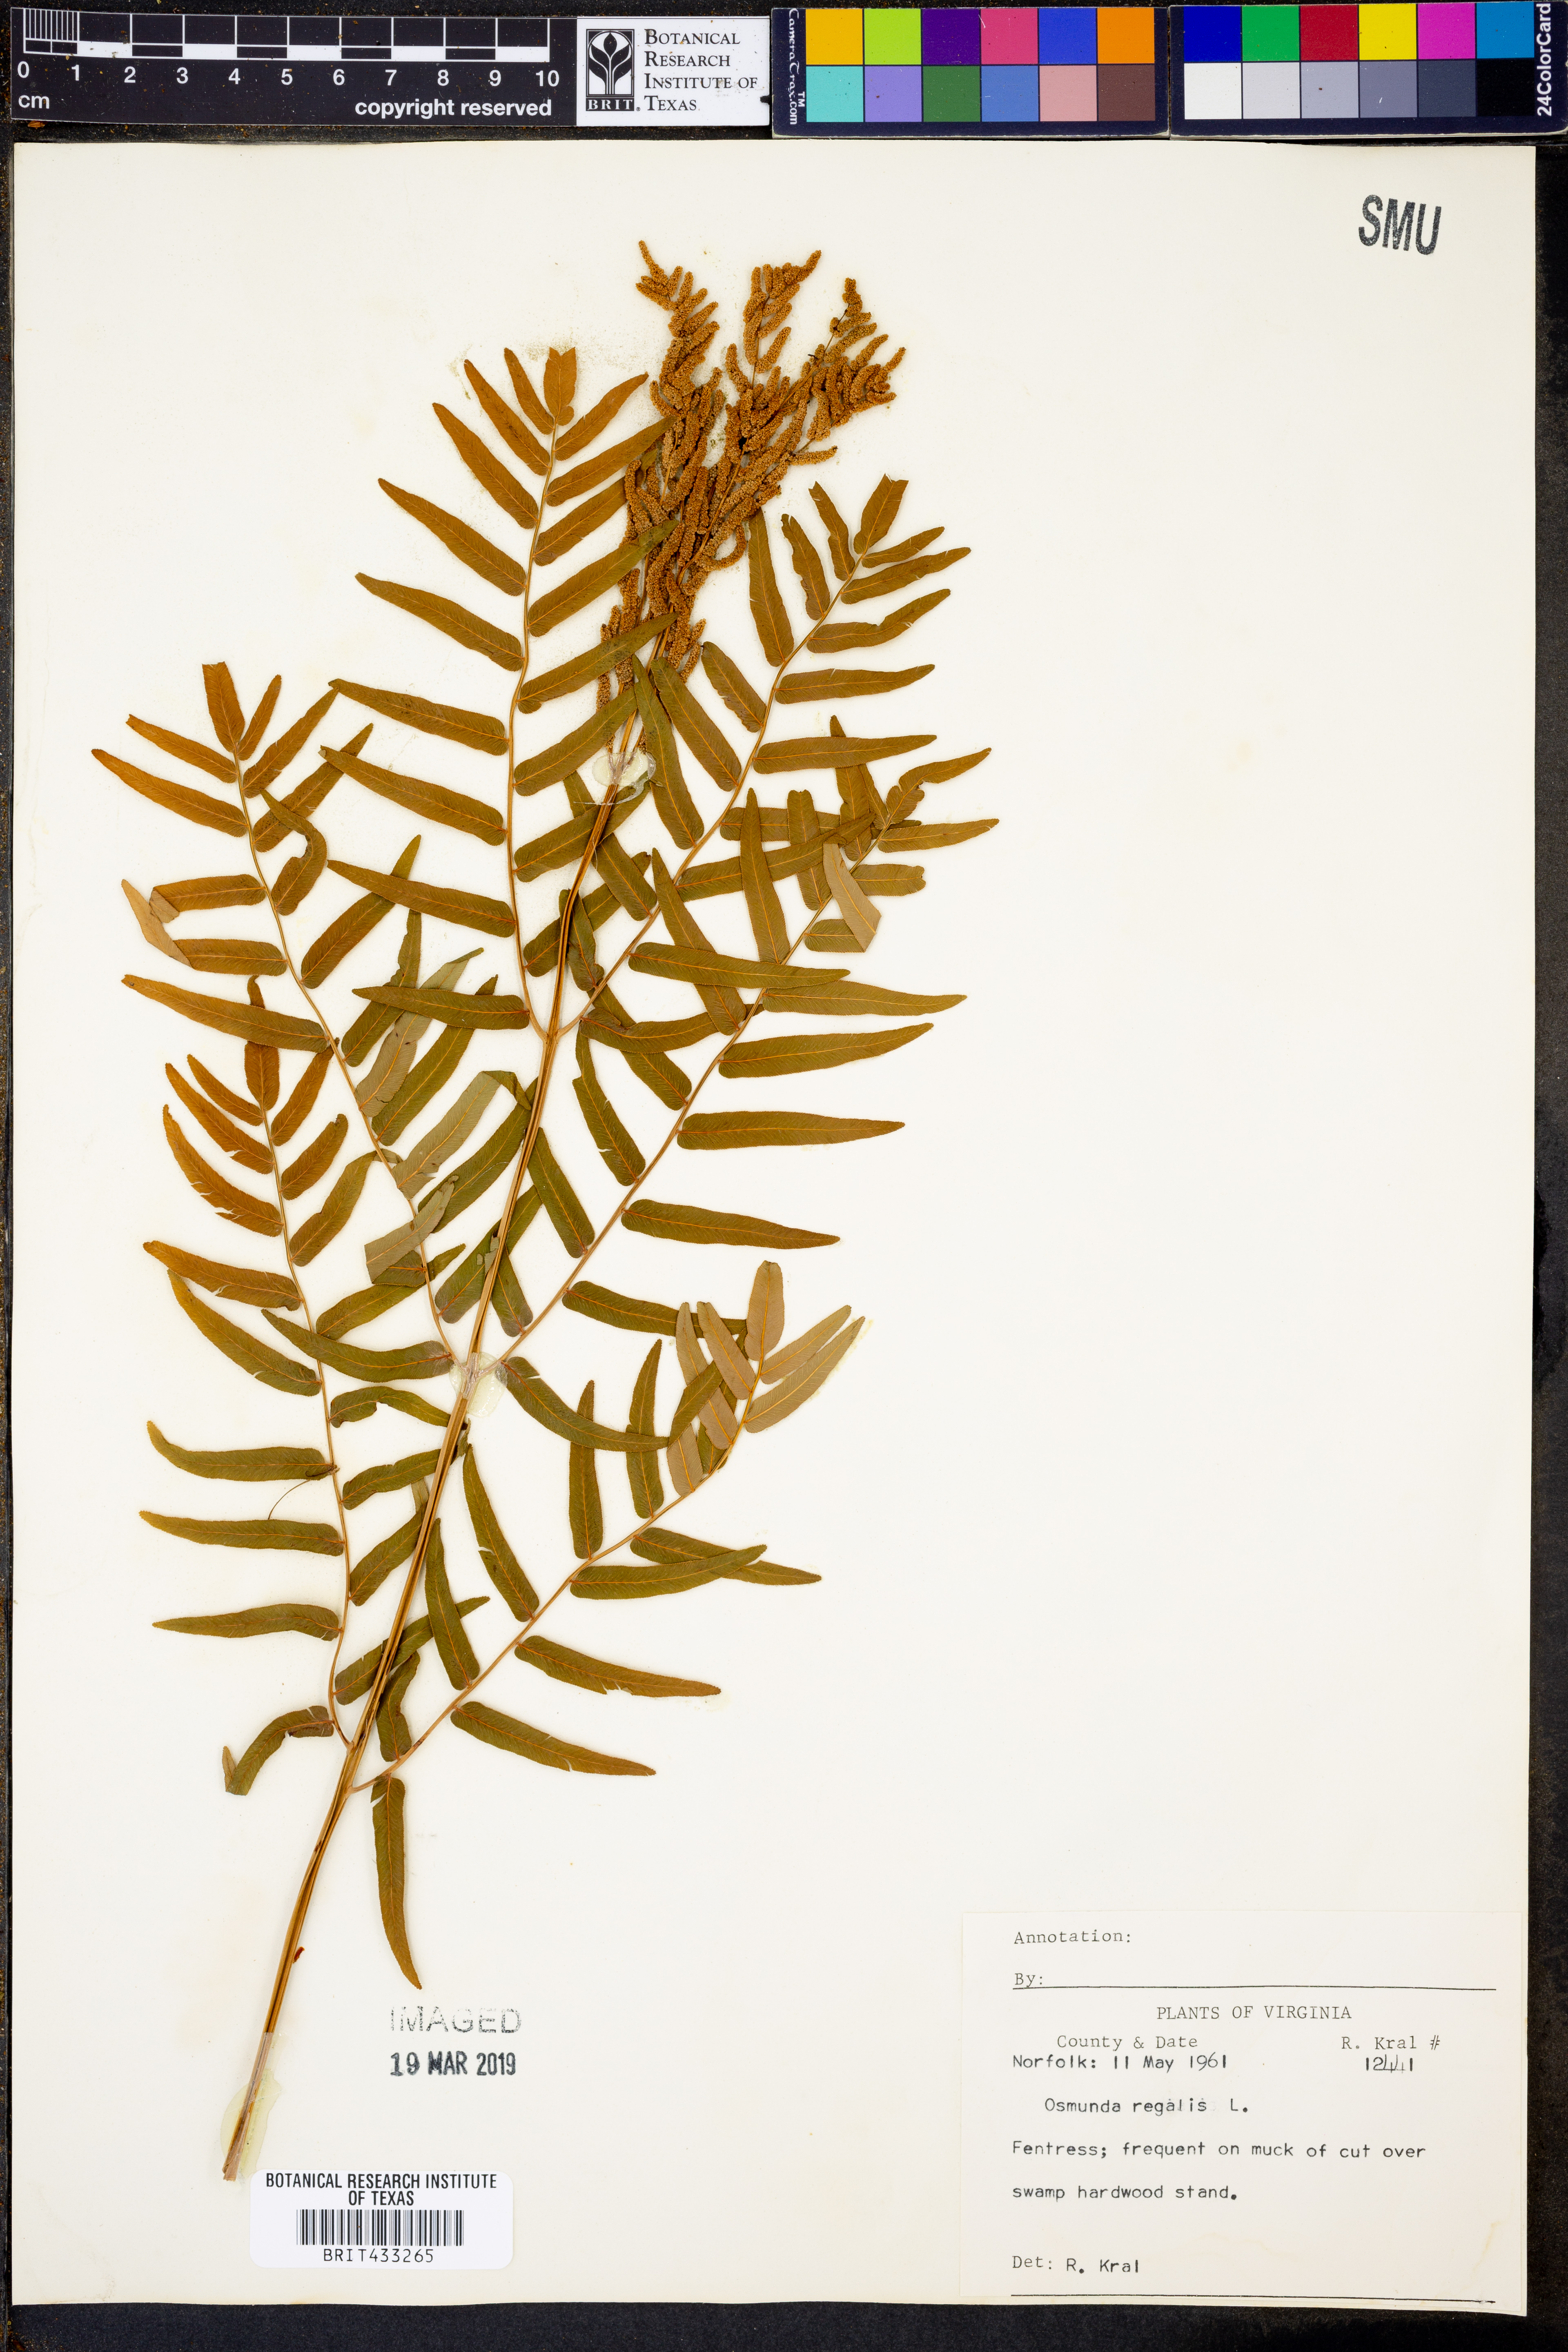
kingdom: Plantae
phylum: Tracheophyta
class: Polypodiopsida
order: Osmundales
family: Osmundaceae
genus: Osmunda
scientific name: Osmunda regalis
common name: Royal fern
